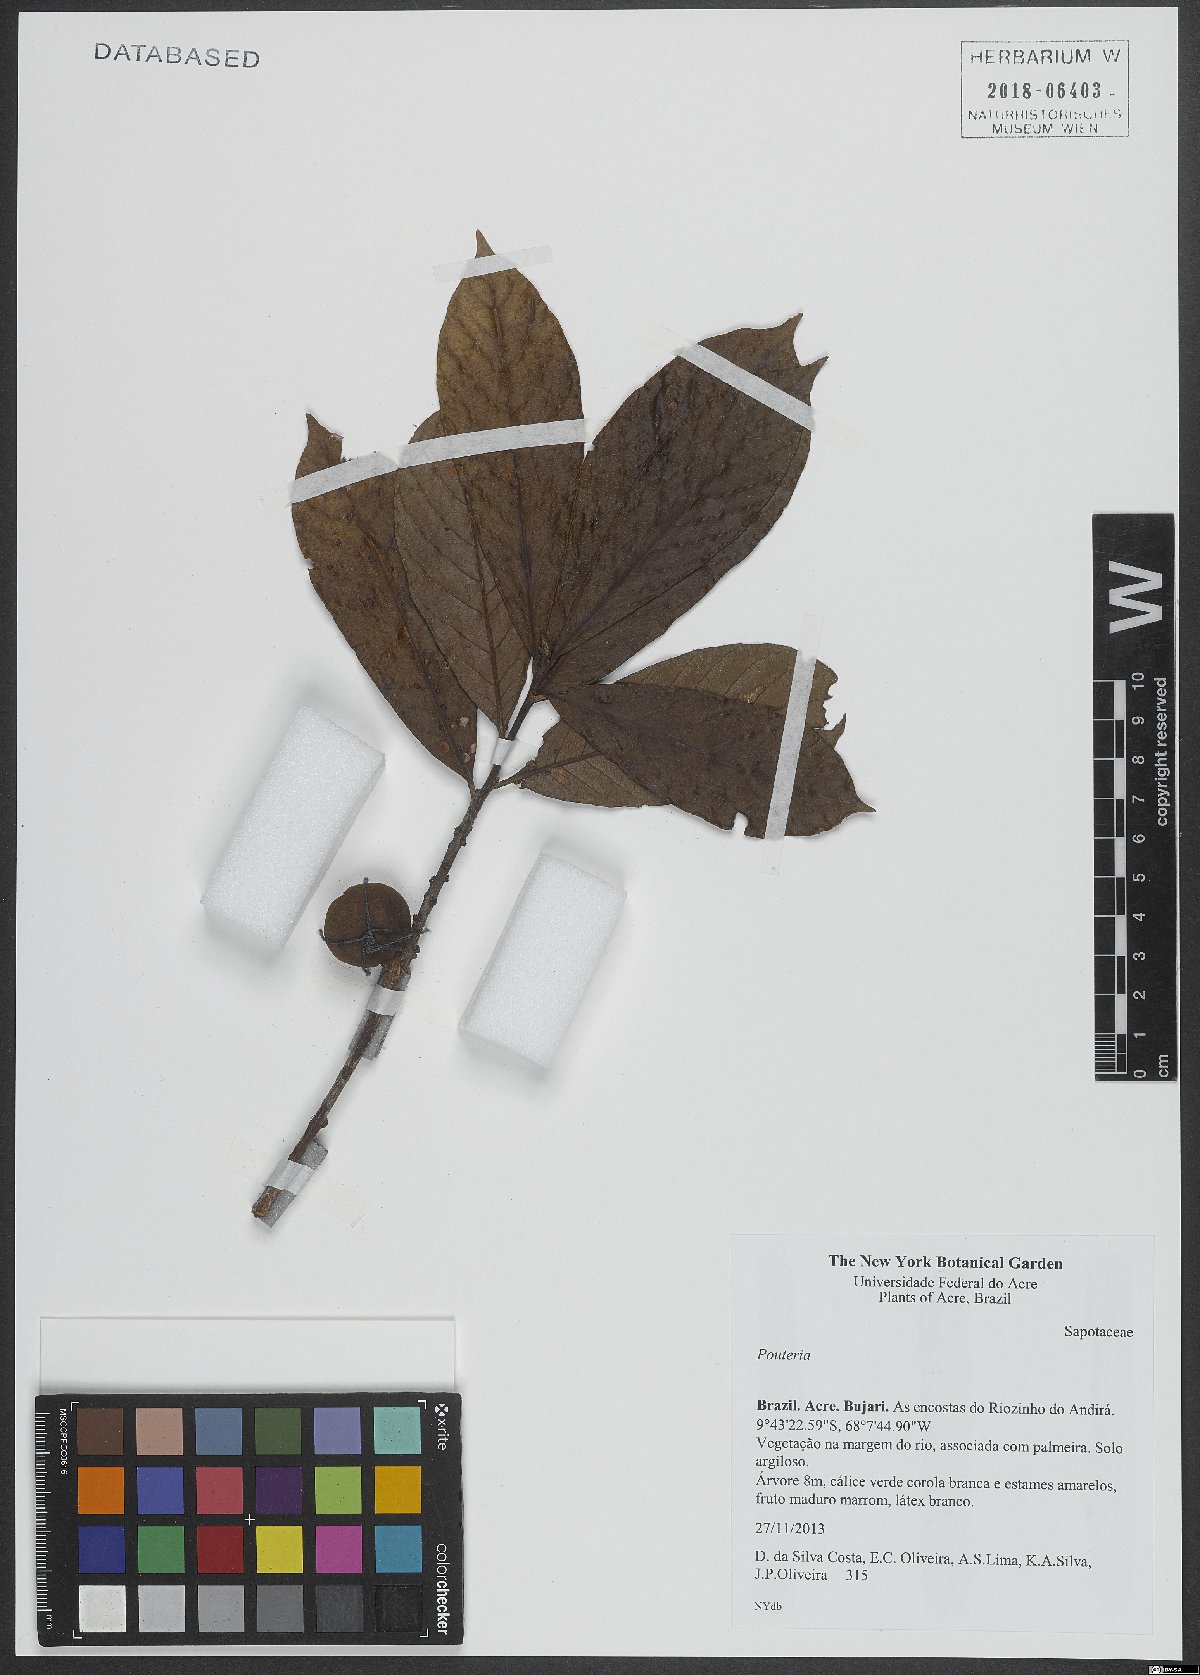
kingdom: Plantae
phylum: Tracheophyta
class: Magnoliopsida
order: Ericales
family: Sapotaceae
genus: Pouteria
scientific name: Pouteria
